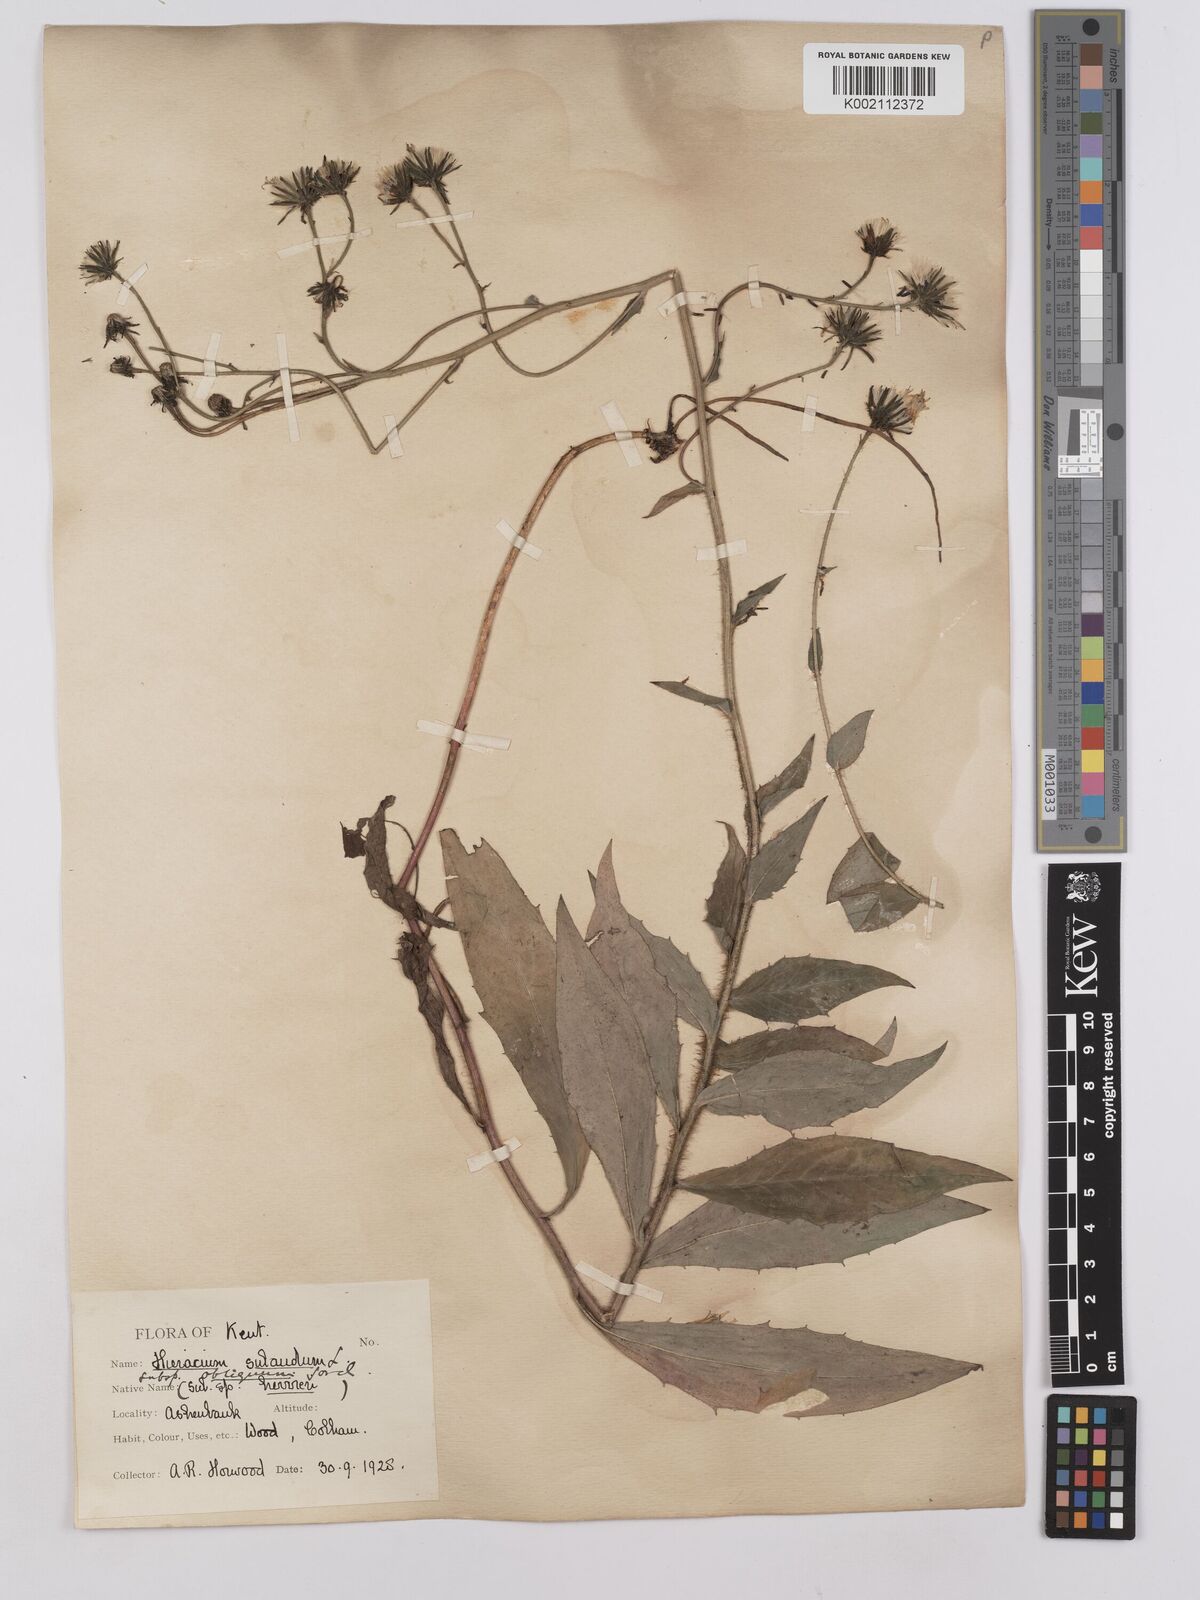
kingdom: Plantae
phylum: Tracheophyta
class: Magnoliopsida
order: Asterales
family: Asteraceae
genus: Hieracium
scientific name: Hieracium sabaudum
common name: New england hawkweed
